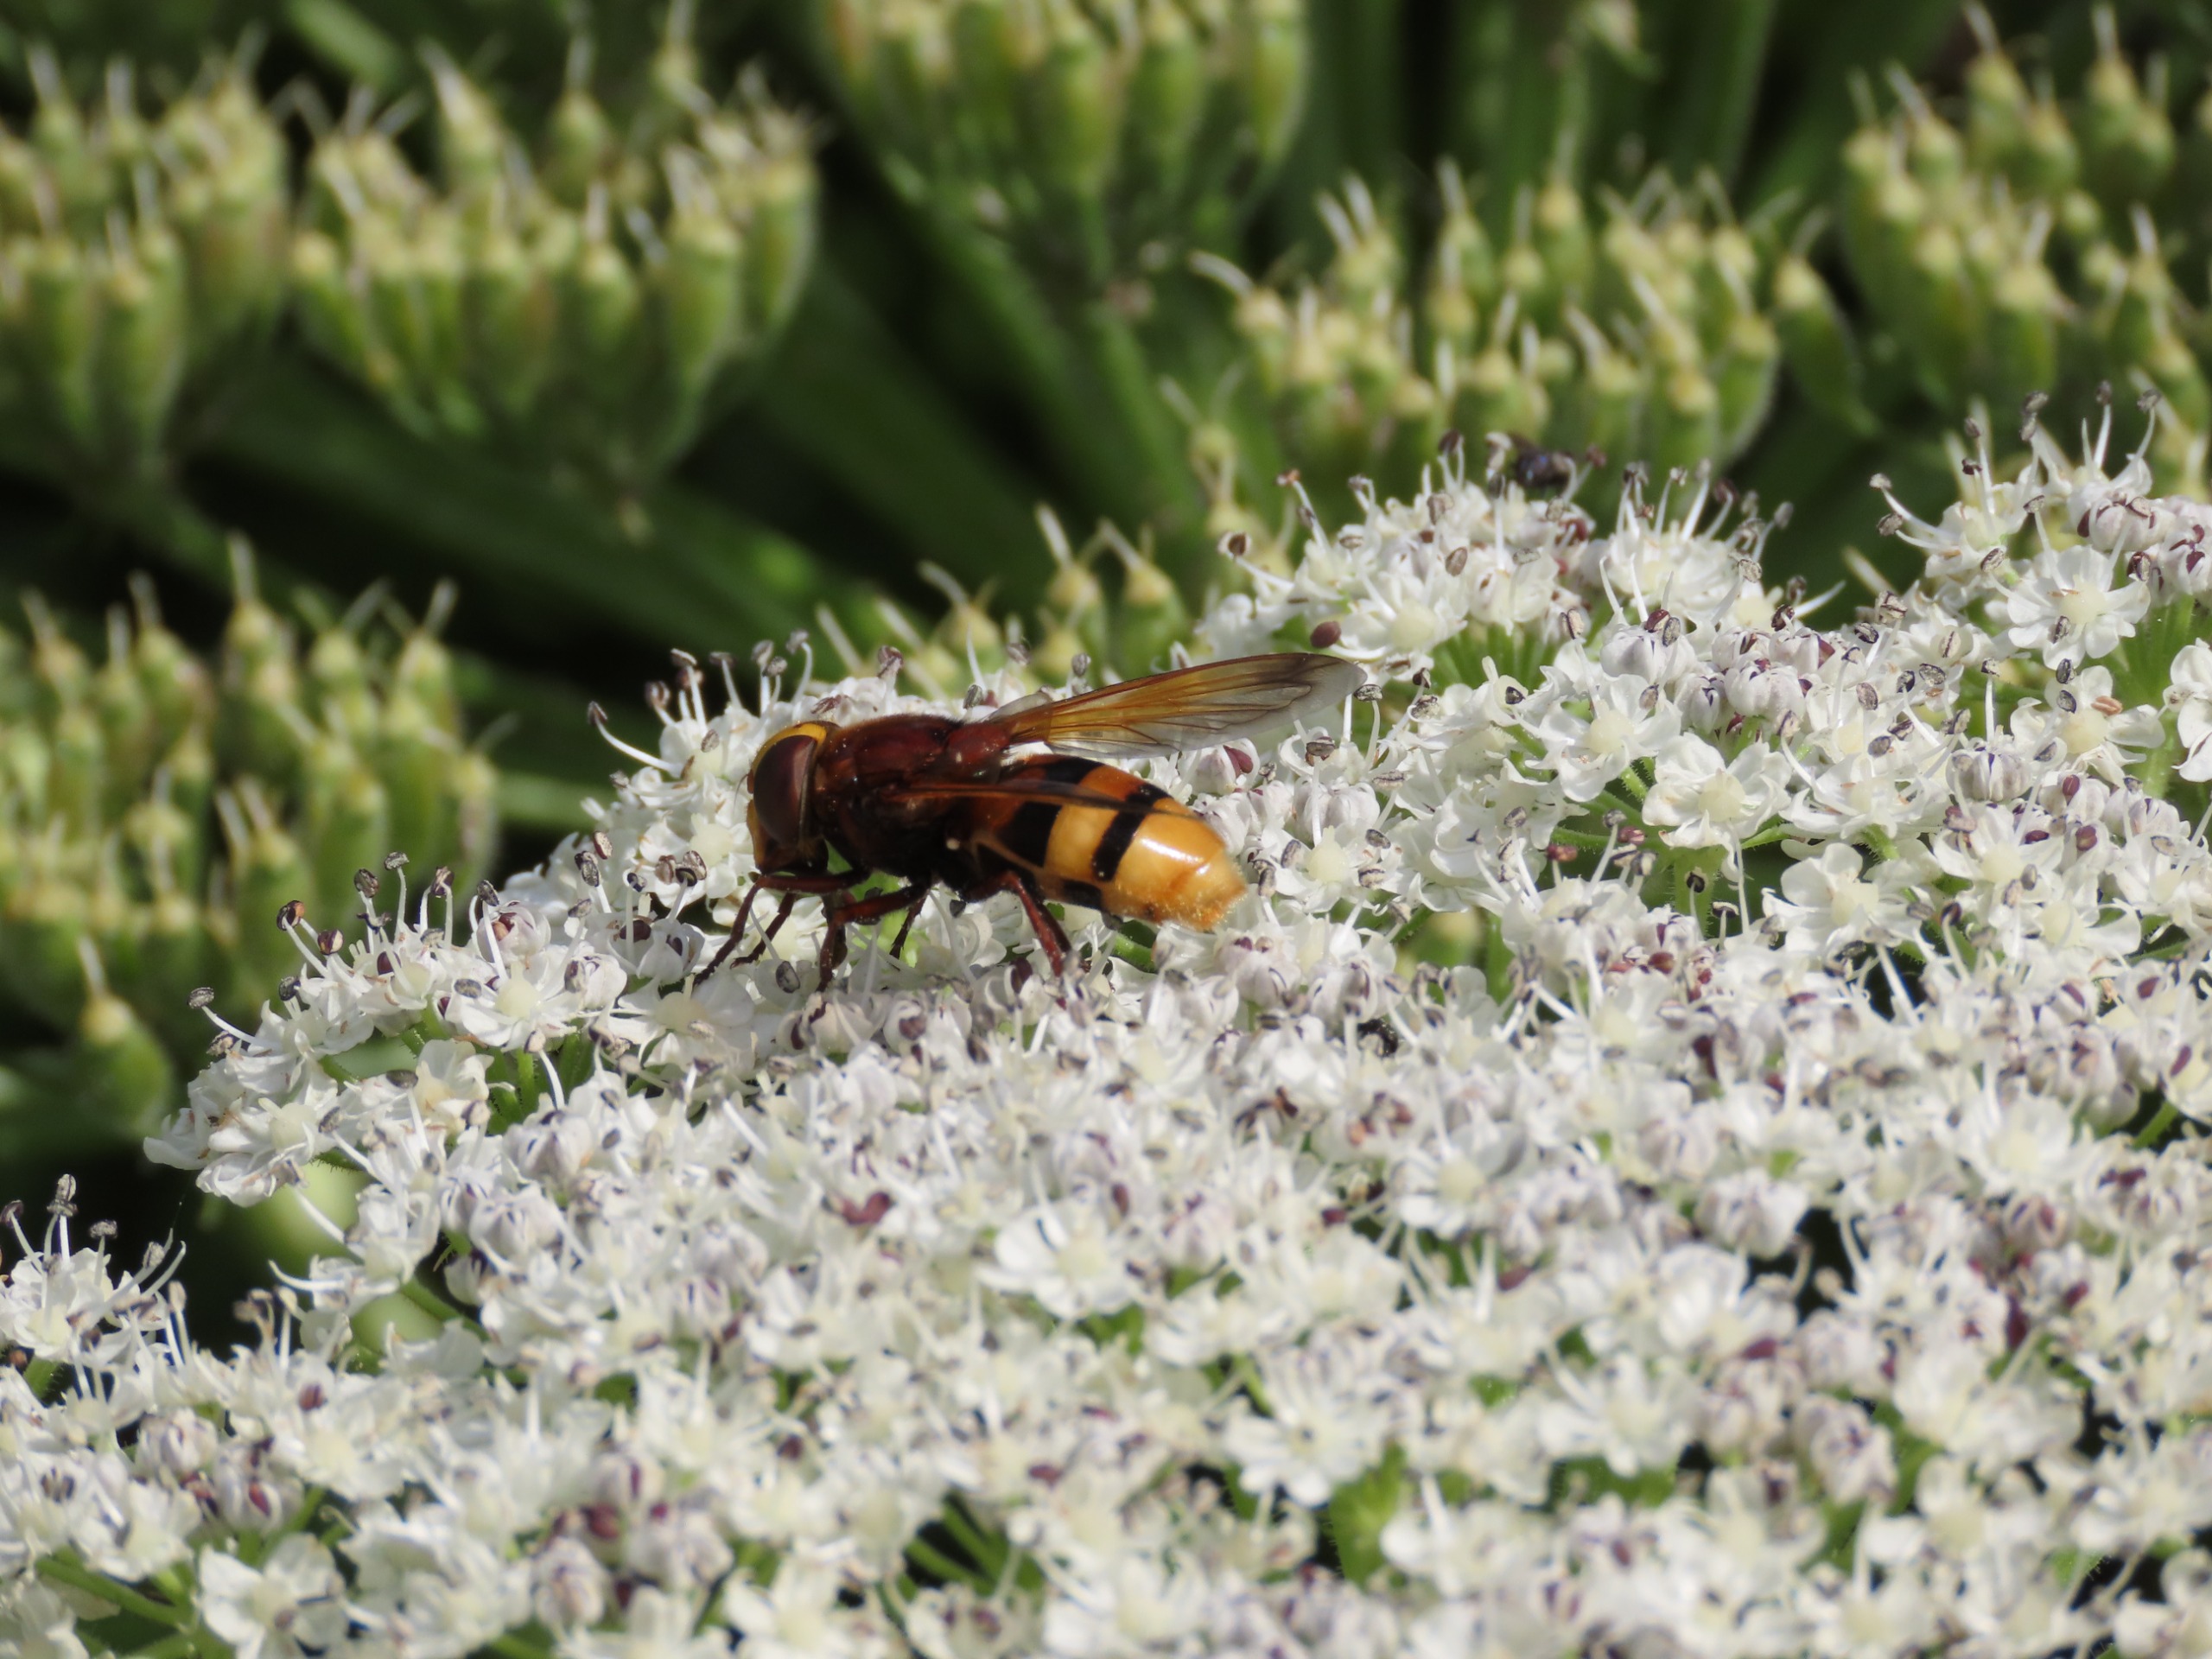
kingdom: Animalia
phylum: Arthropoda
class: Insecta
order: Diptera
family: Syrphidae
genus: Volucella
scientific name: Volucella zonaria
